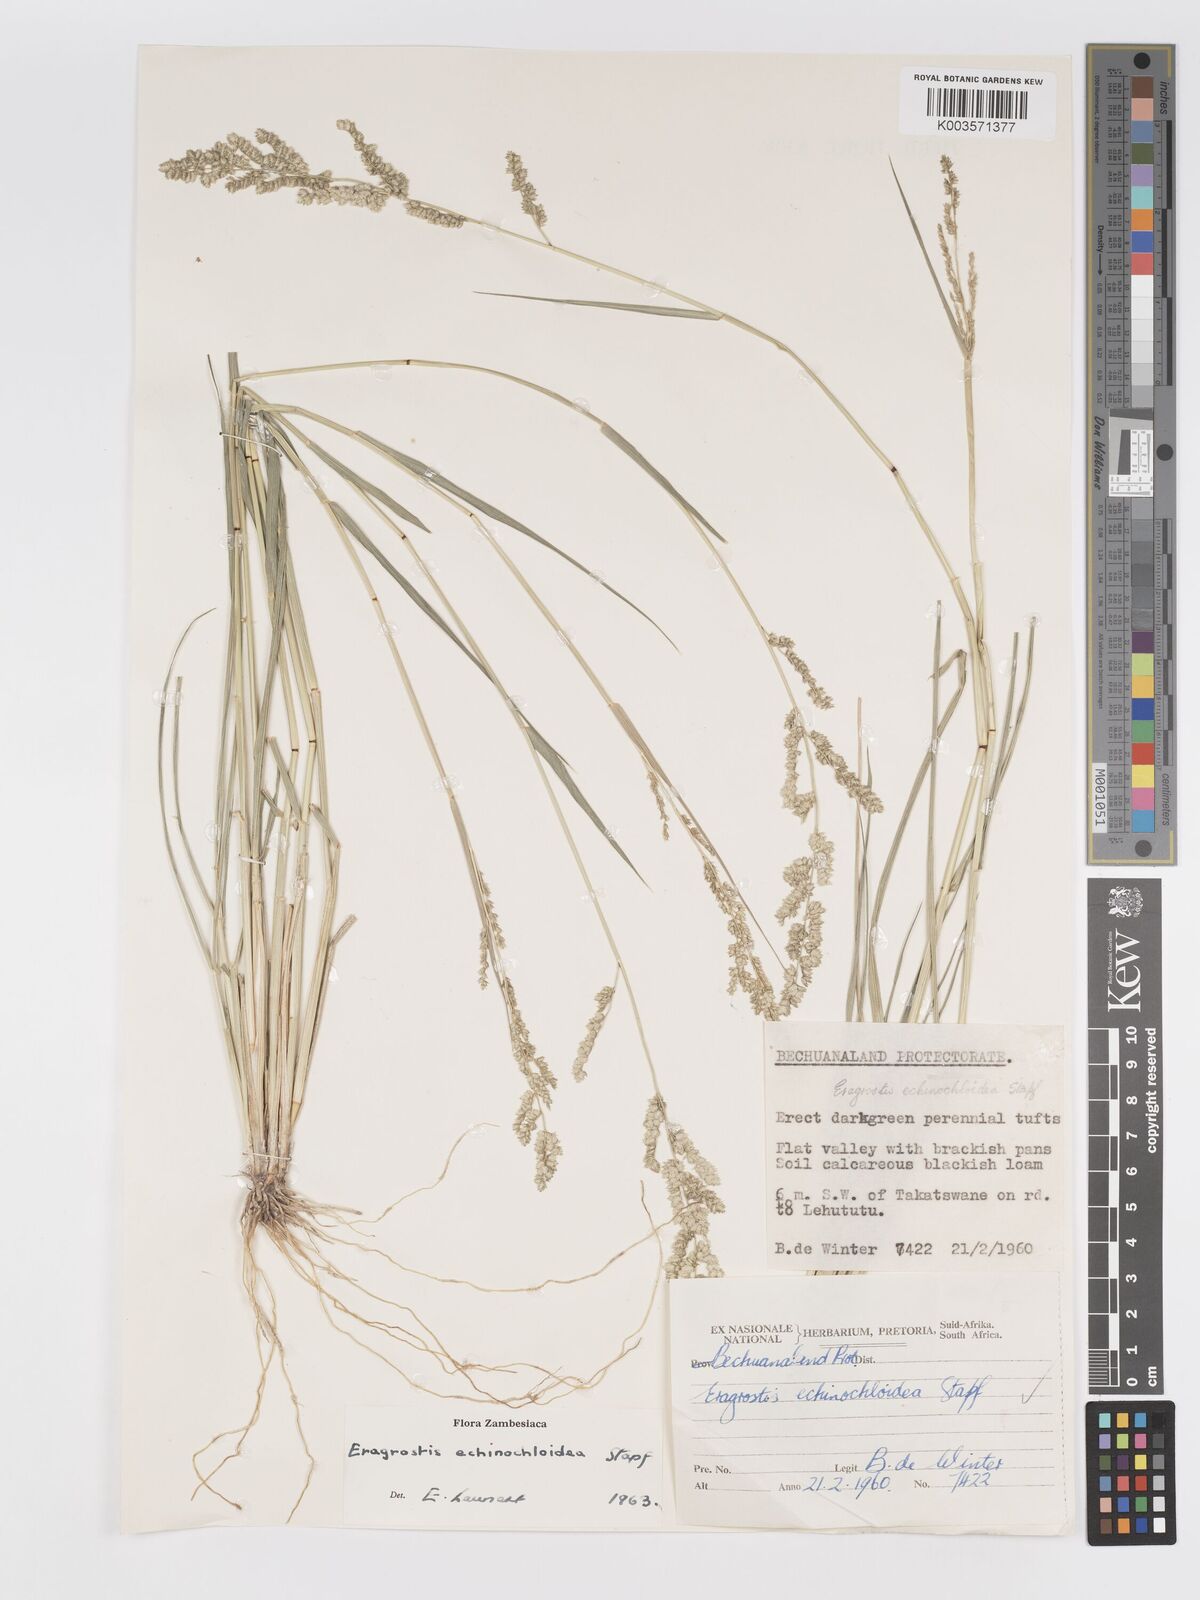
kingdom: Plantae
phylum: Tracheophyta
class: Liliopsida
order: Poales
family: Poaceae
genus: Eragrostis
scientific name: Eragrostis echinochloidea
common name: African lovegrass
